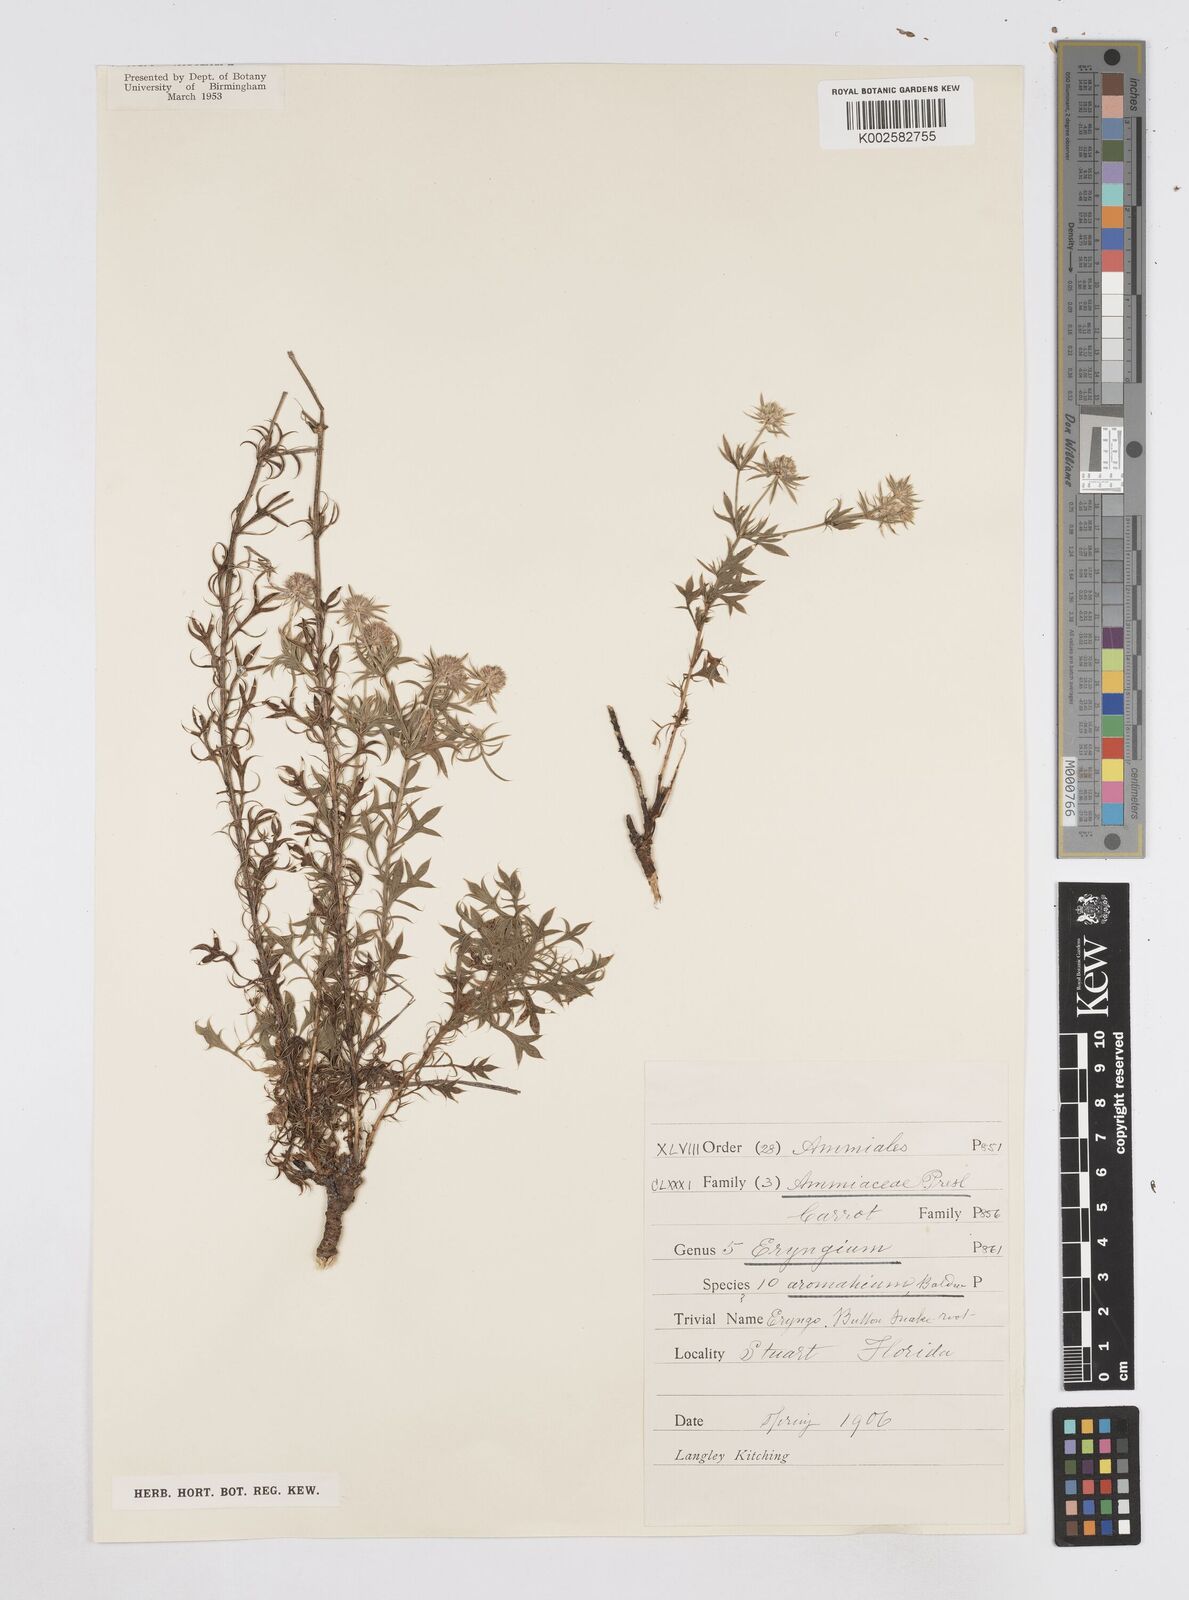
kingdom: Plantae
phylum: Tracheophyta
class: Magnoliopsida
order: Apiales
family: Apiaceae
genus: Eryngium
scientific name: Eryngium aromaticum
